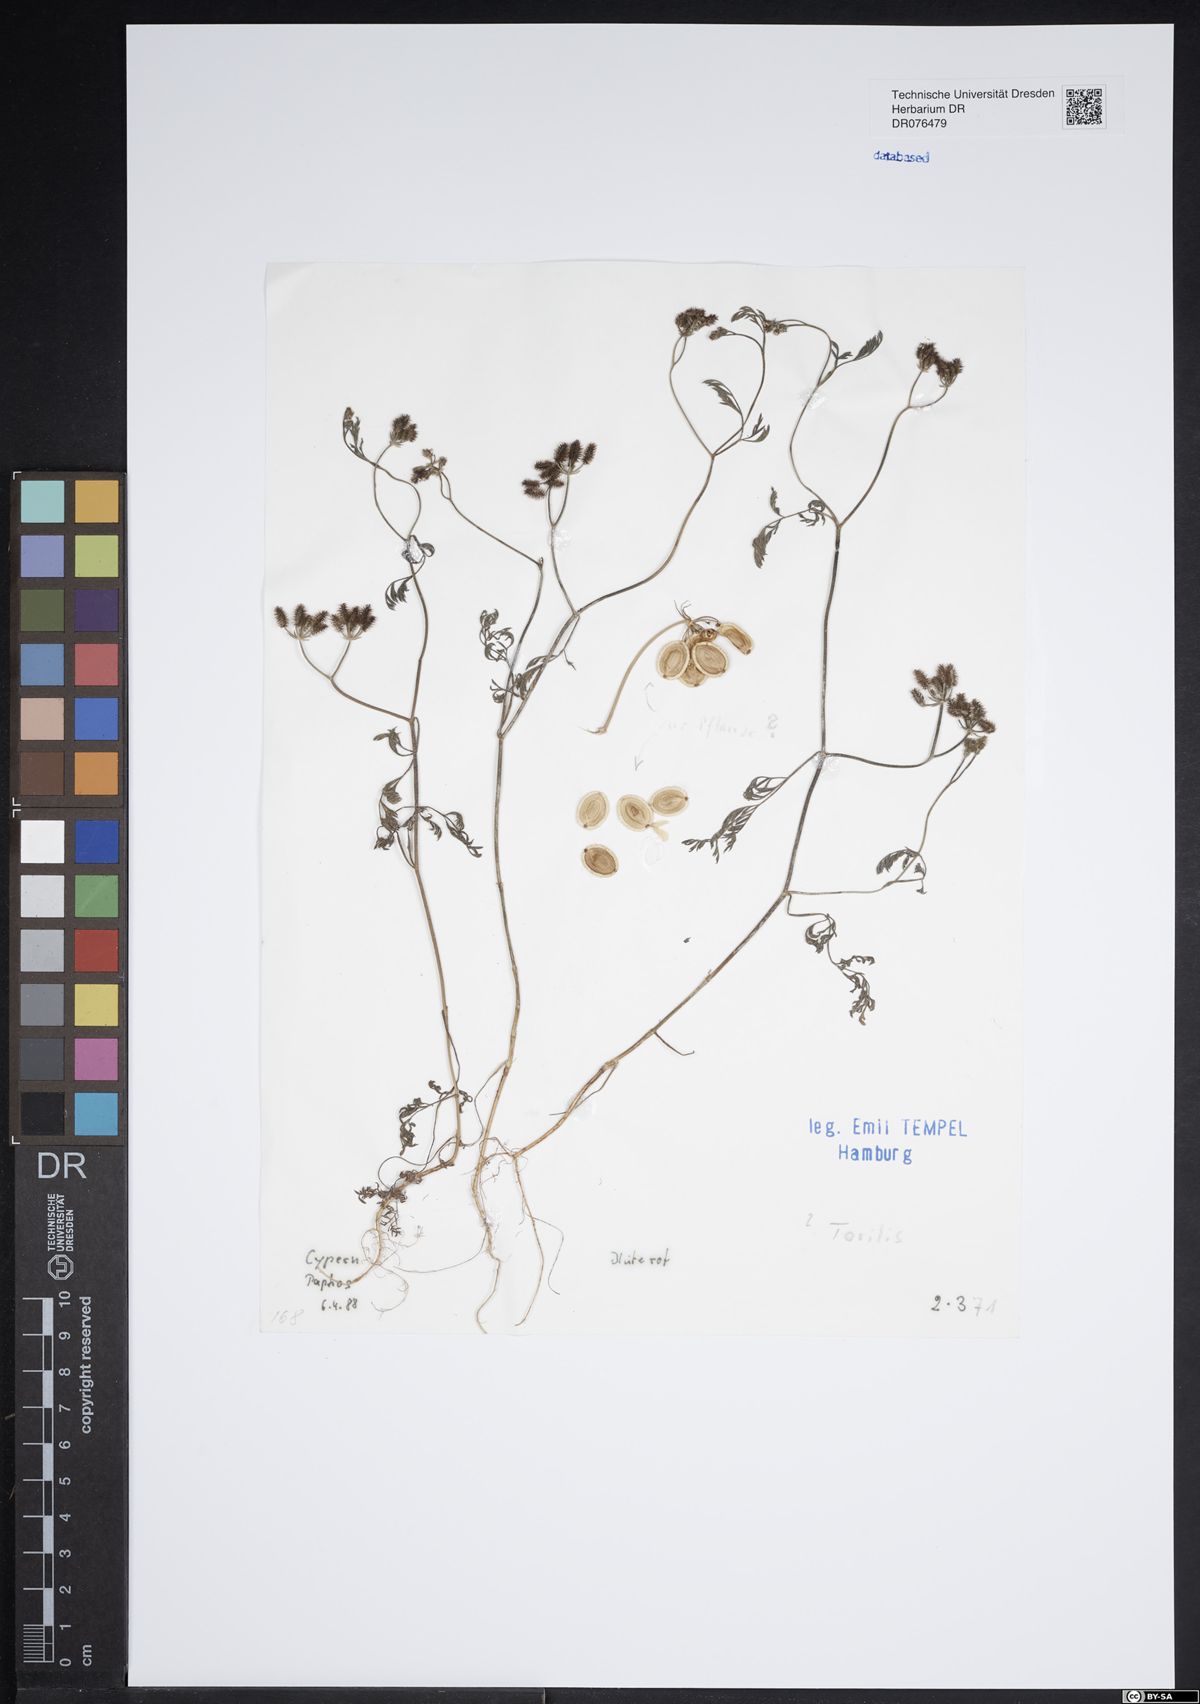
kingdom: Plantae
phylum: Tracheophyta
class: Magnoliopsida
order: Apiales
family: Apiaceae
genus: Torilis
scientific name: Torilis
